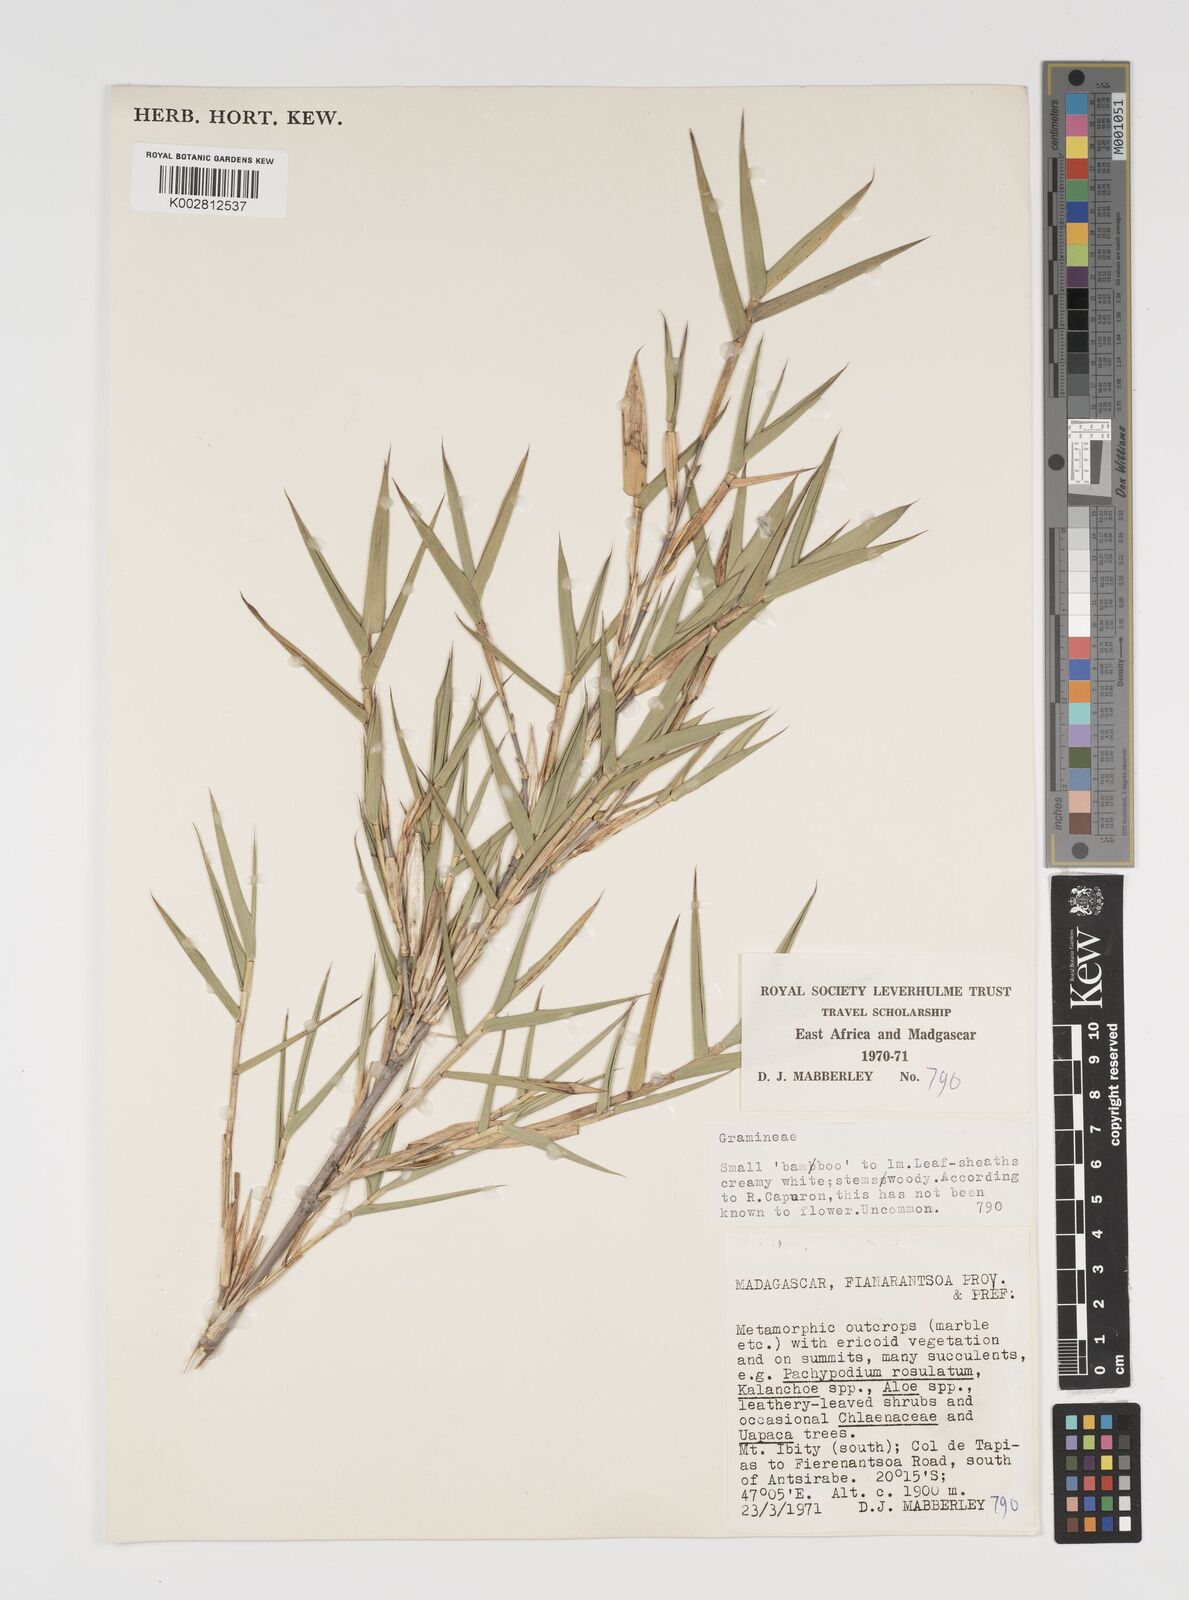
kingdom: Plantae
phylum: Tracheophyta
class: Liliopsida
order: Poales
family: Poaceae
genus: Arundinaria
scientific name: Arundinaria
